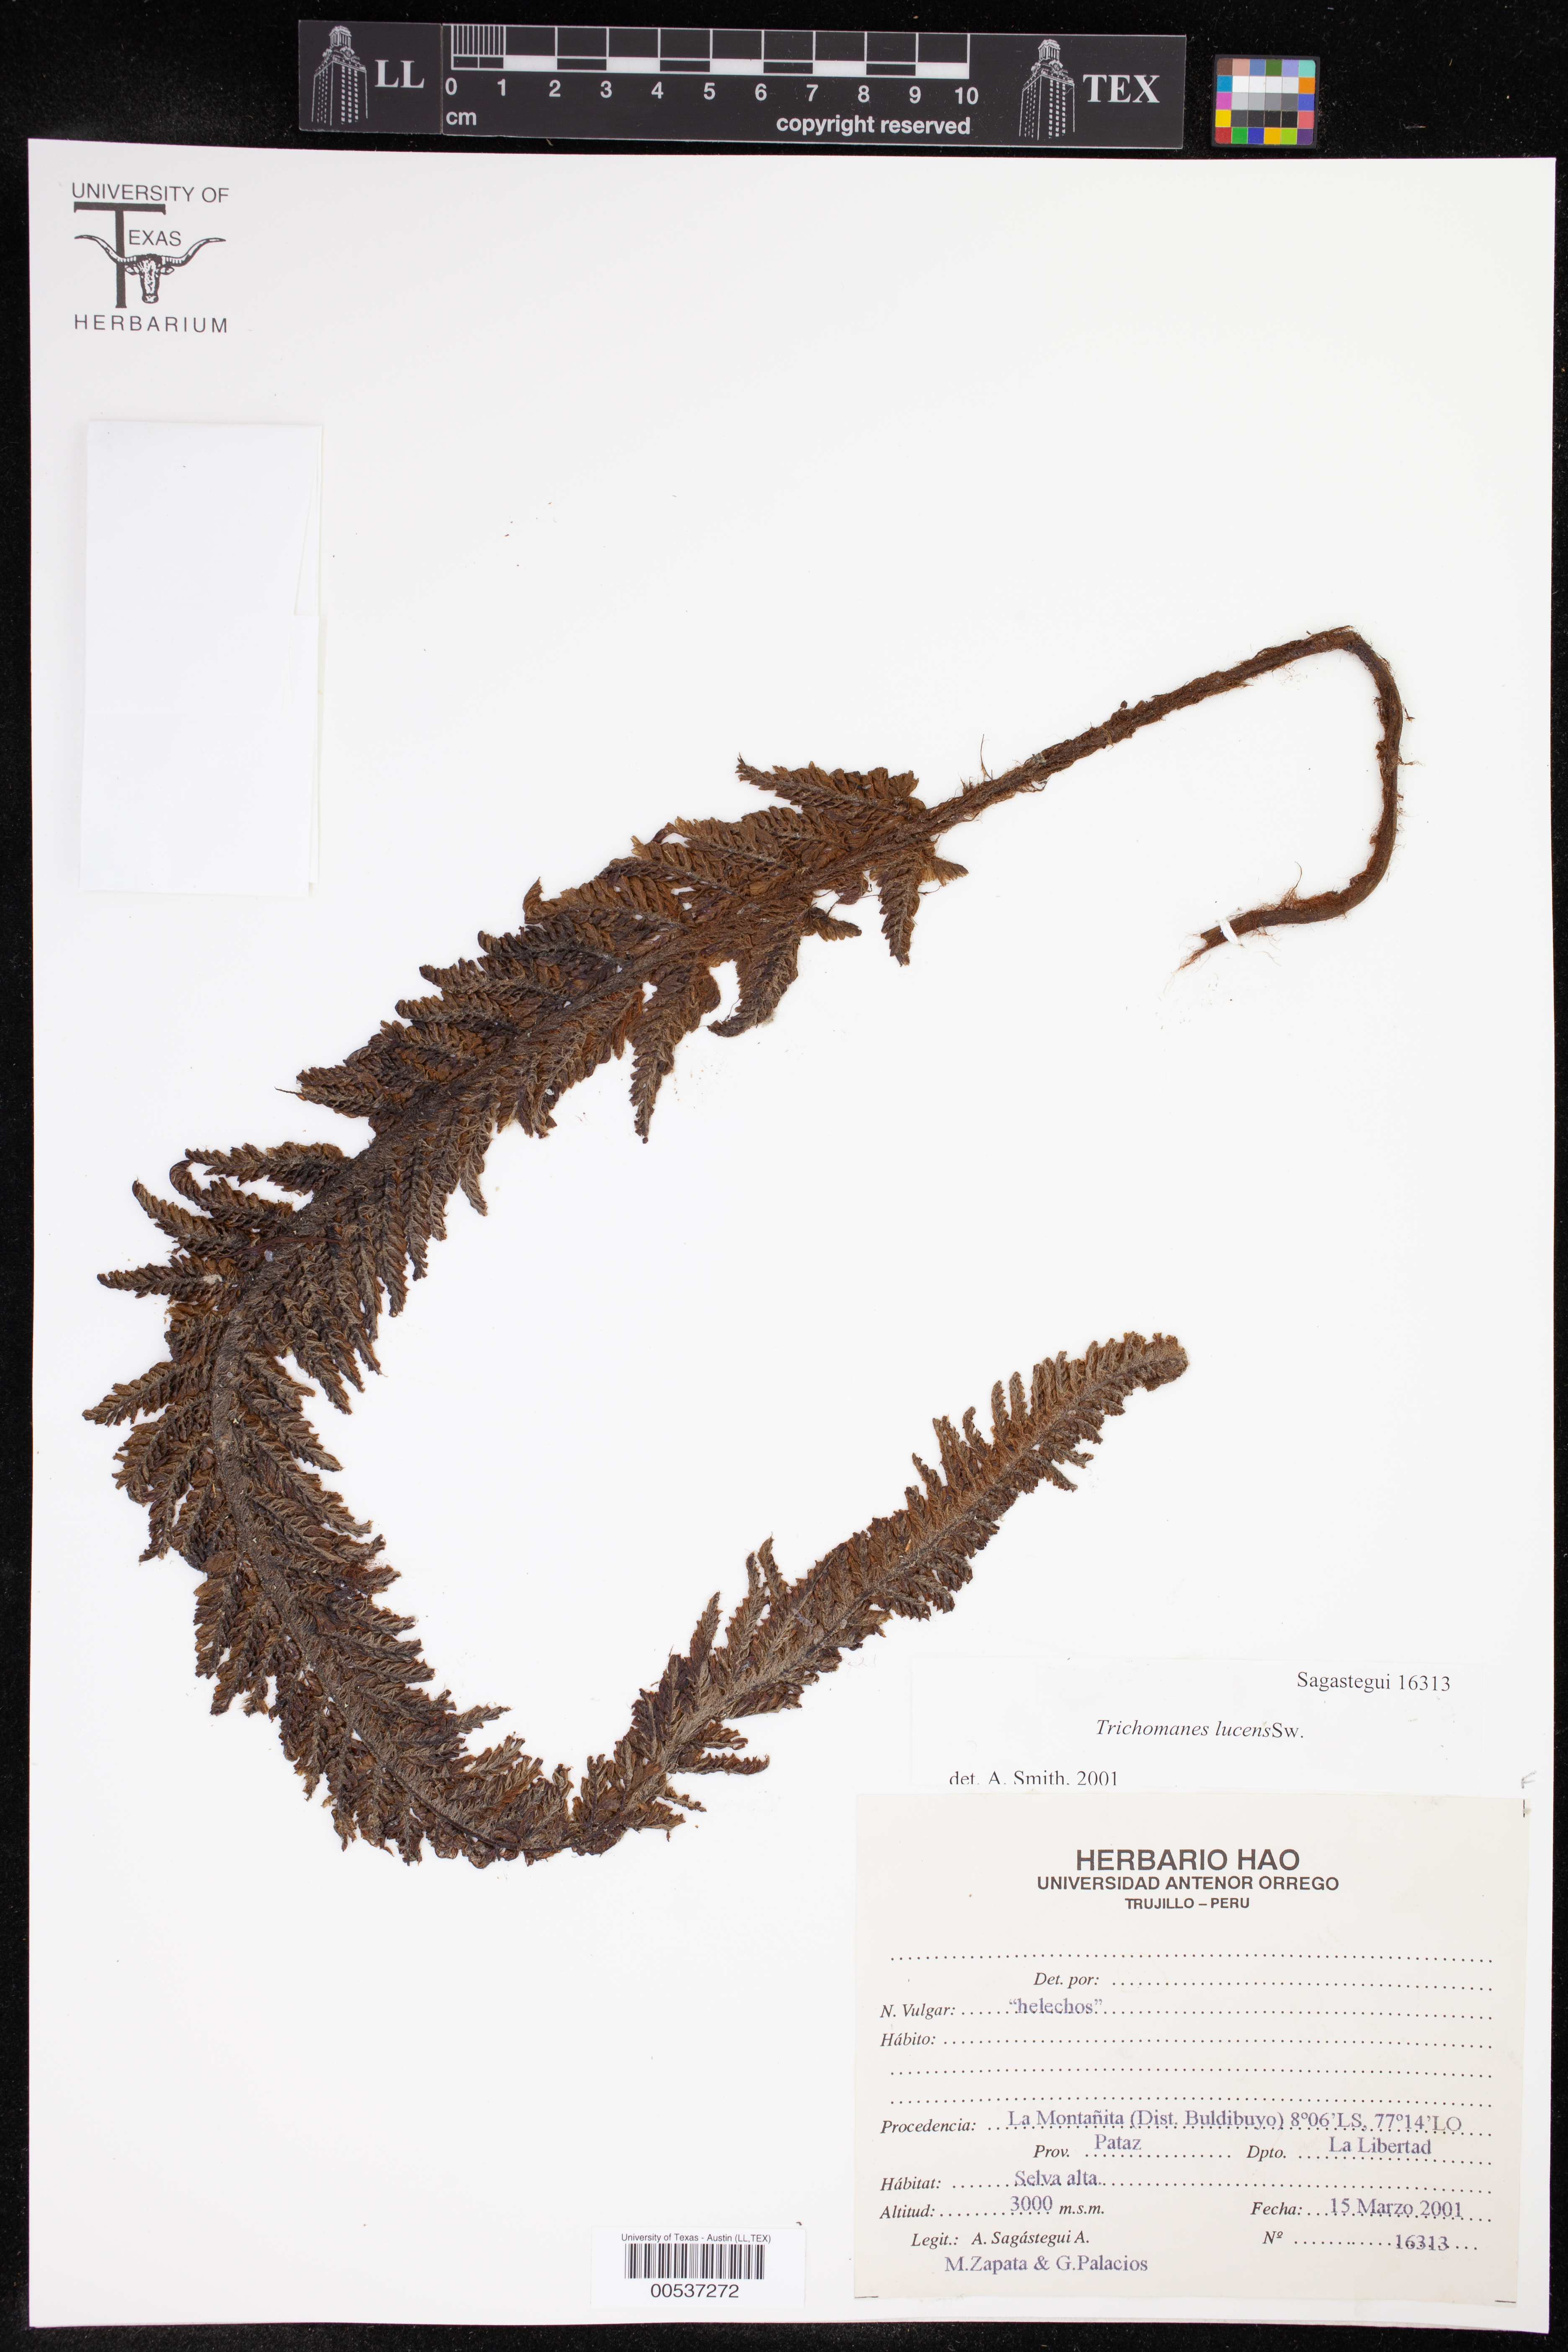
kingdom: Plantae
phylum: Tracheophyta
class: Polypodiopsida
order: Hymenophyllales
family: Hymenophyllaceae
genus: Trichomanes
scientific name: Trichomanes lucens
